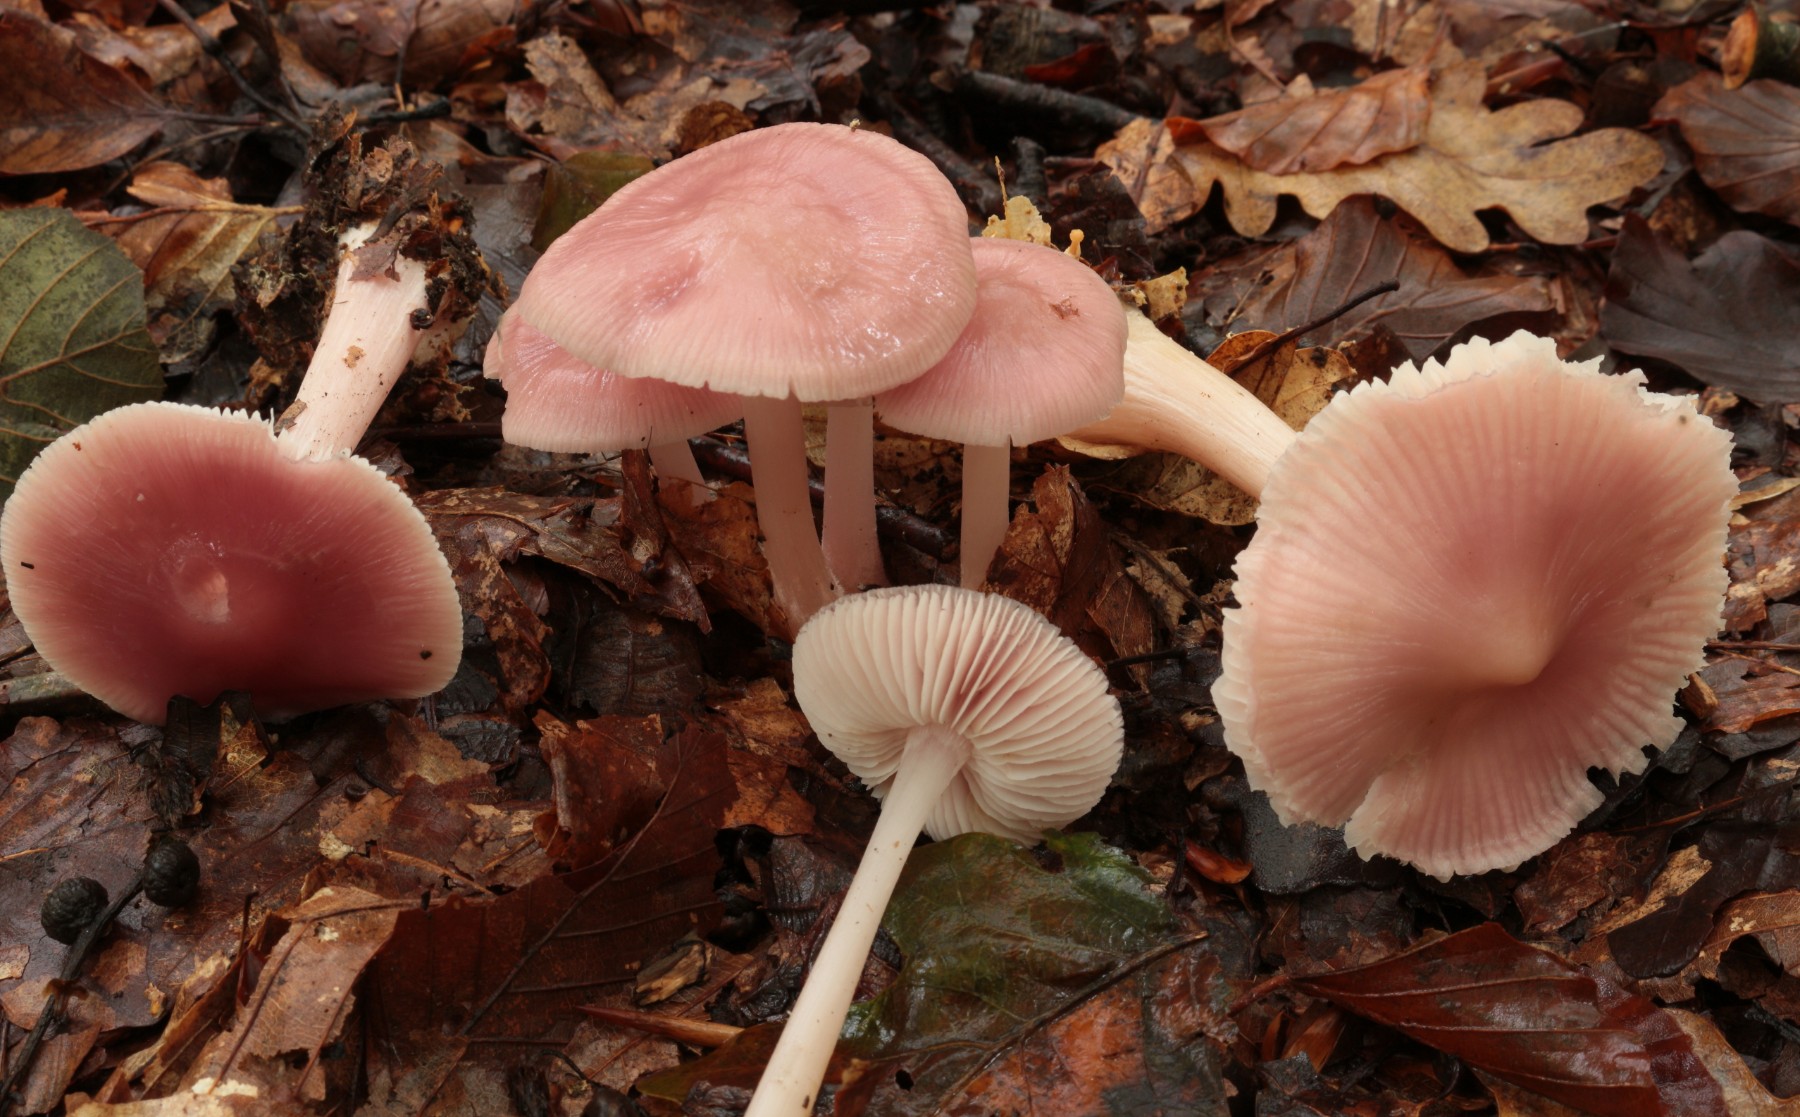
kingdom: Fungi
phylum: Basidiomycota
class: Agaricomycetes
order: Agaricales
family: Mycenaceae
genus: Mycena
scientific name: Mycena rosea
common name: rosa huesvamp
